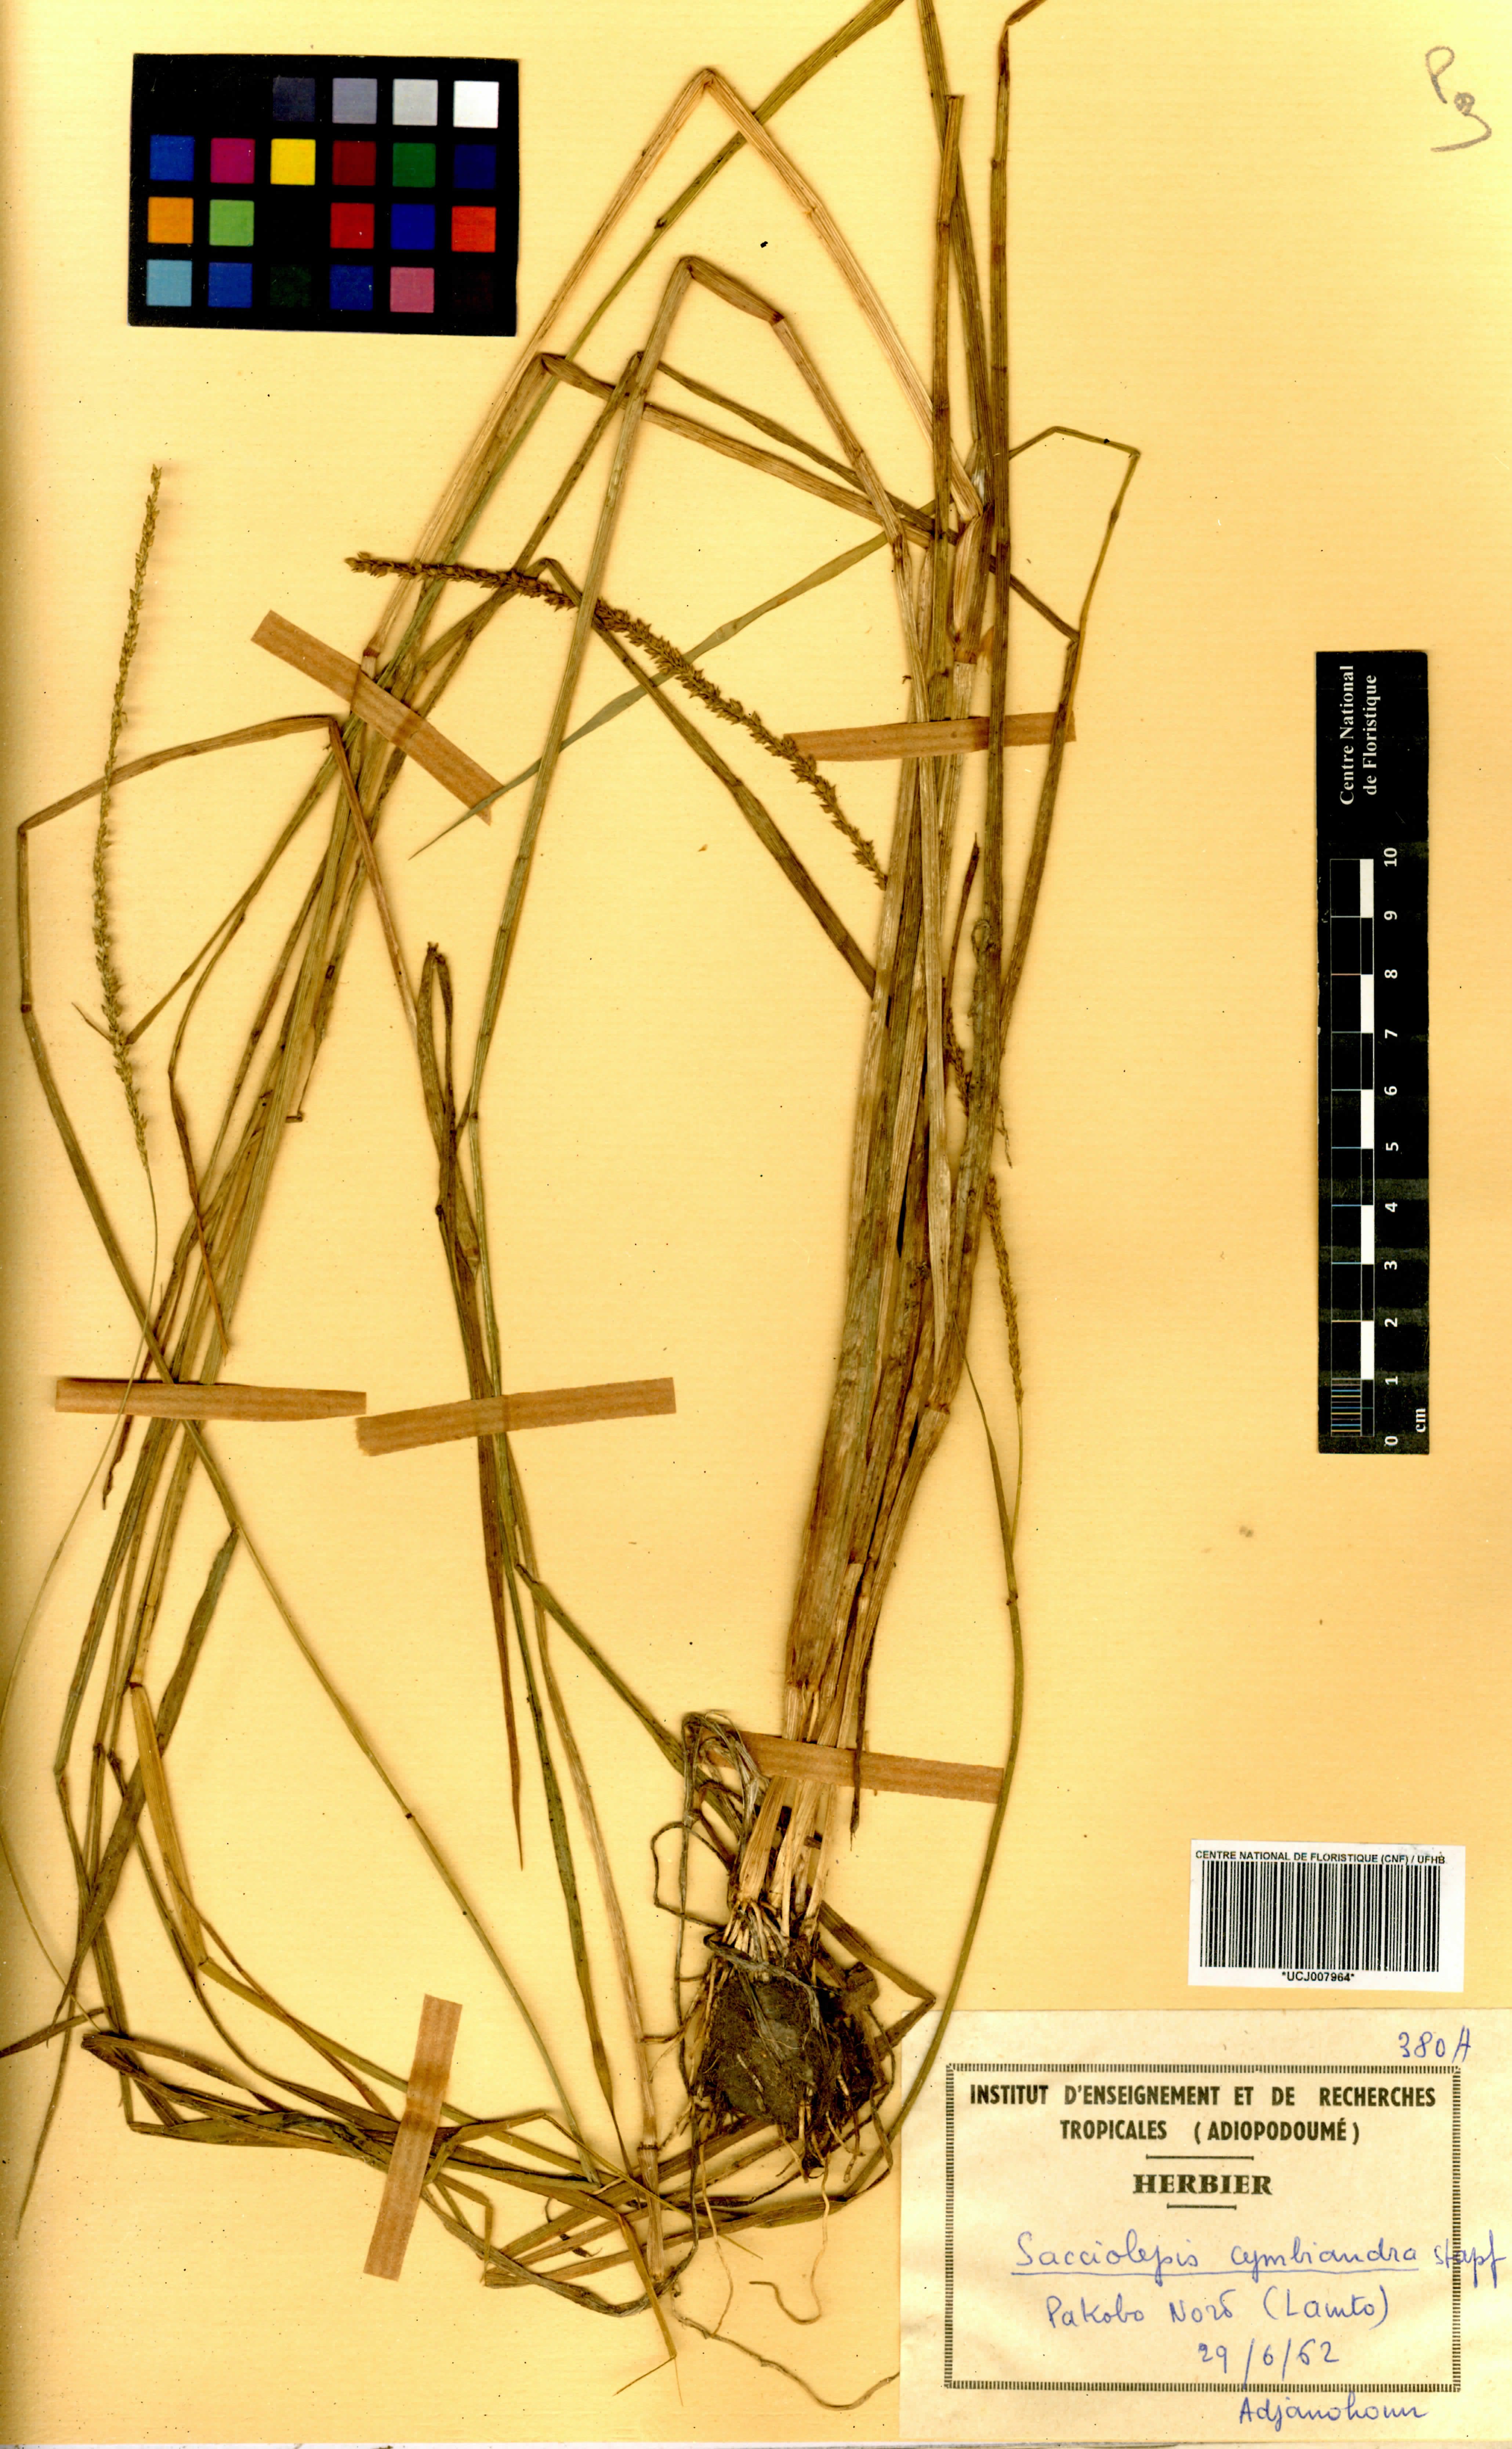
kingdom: Plantae
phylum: Tracheophyta
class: Liliopsida
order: Poales
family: Poaceae
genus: Sacciolepis
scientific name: Sacciolepis cymbiandra
